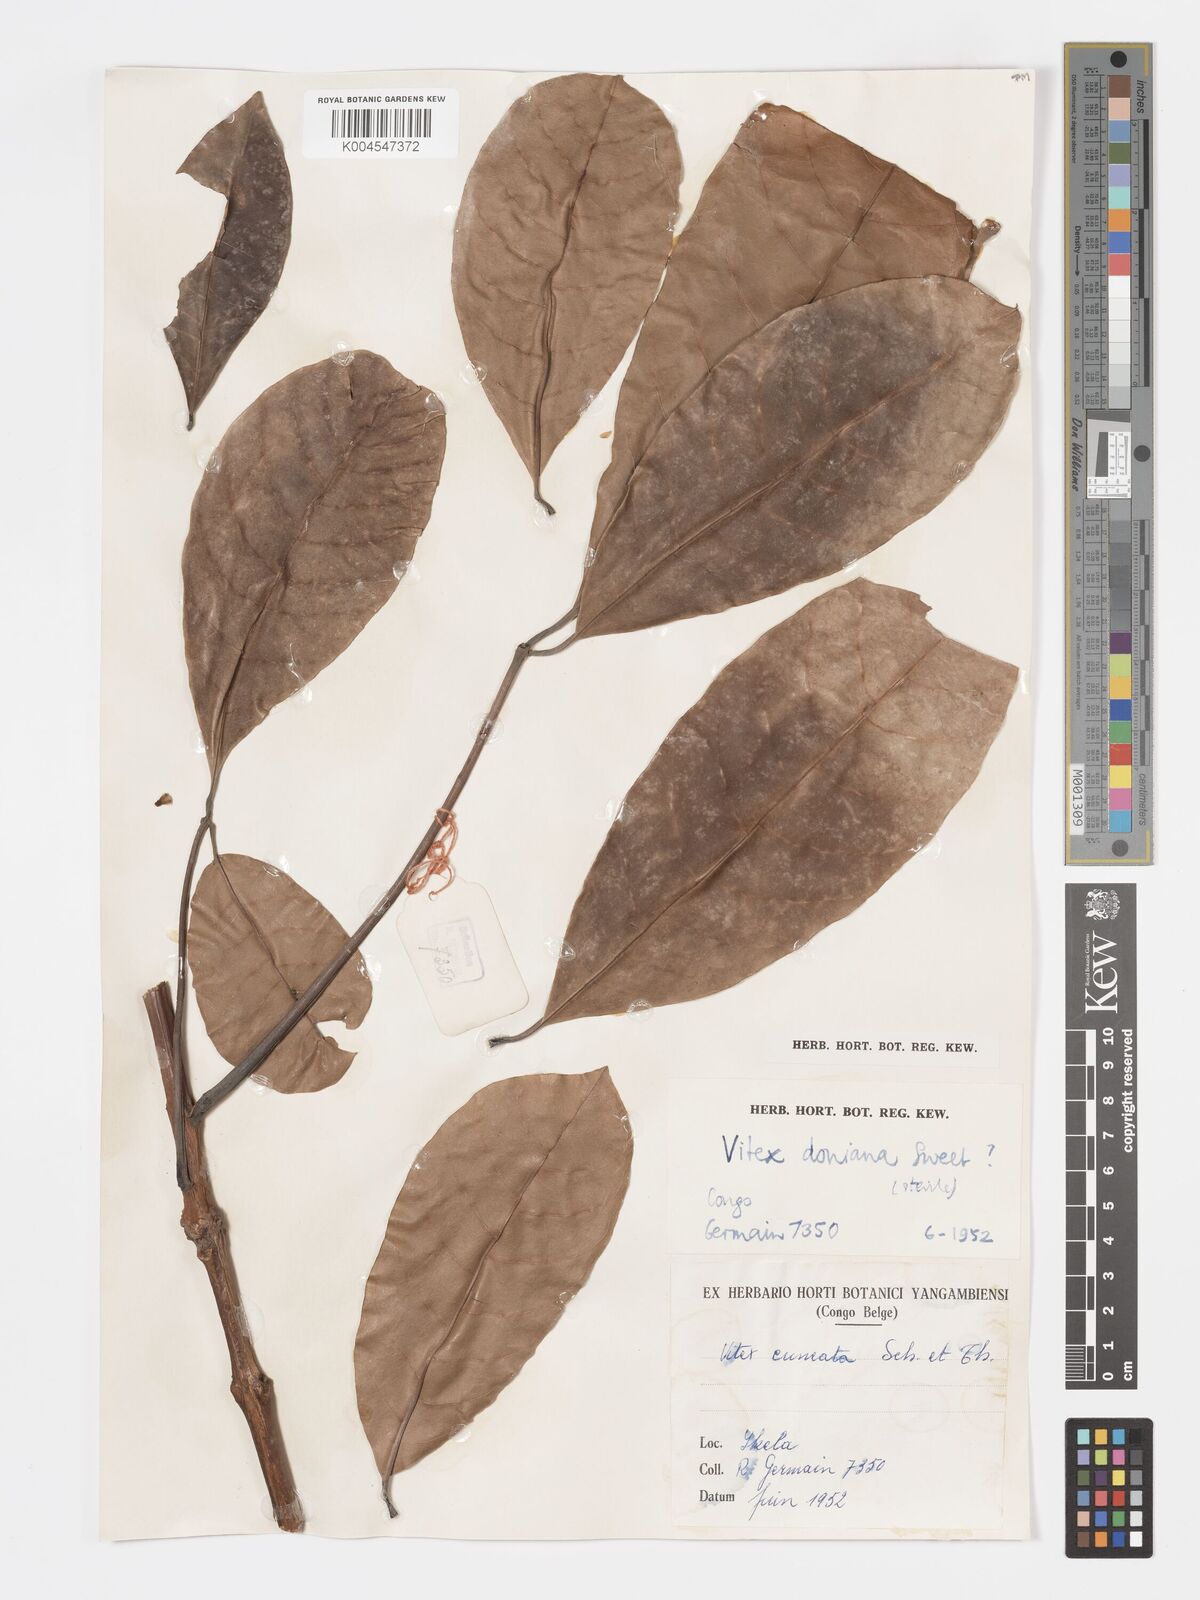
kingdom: Plantae
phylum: Tracheophyta
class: Magnoliopsida
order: Lamiales
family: Lamiaceae
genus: Vitex
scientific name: Vitex doniana
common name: Black plum
